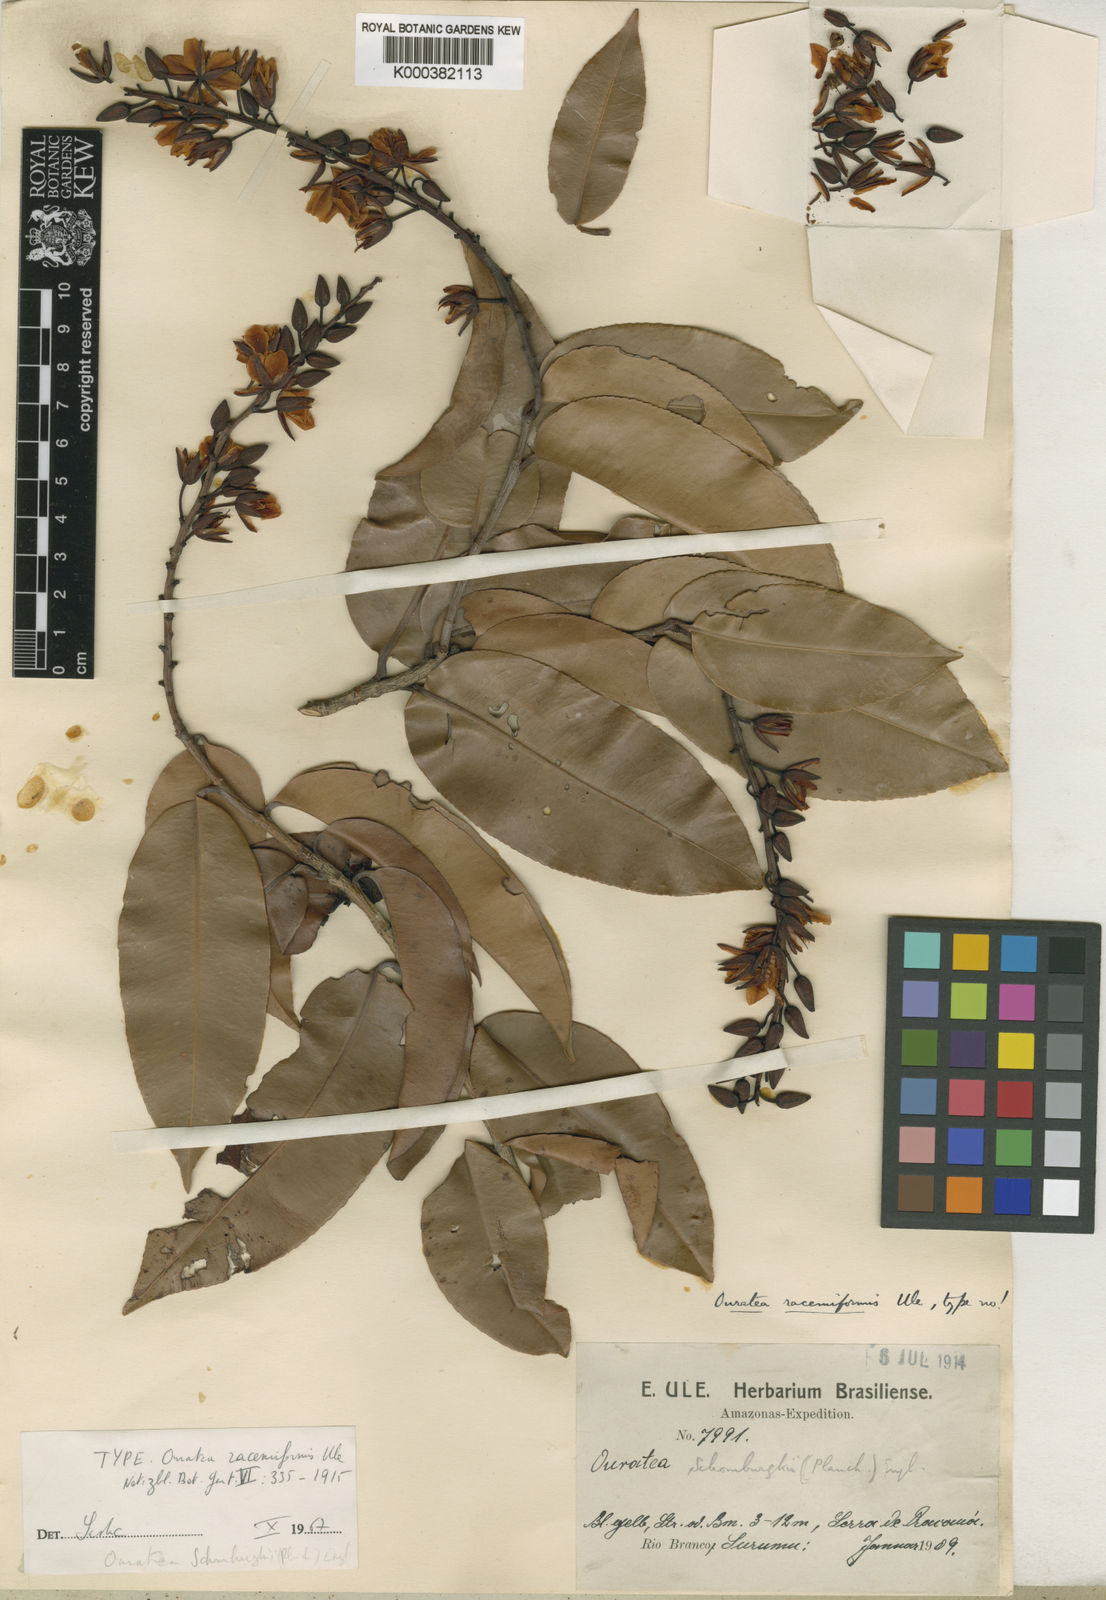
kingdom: Plantae
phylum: Tracheophyta
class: Magnoliopsida
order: Malpighiales
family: Ochnaceae
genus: Ouratea
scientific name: Ouratea racemiformis
